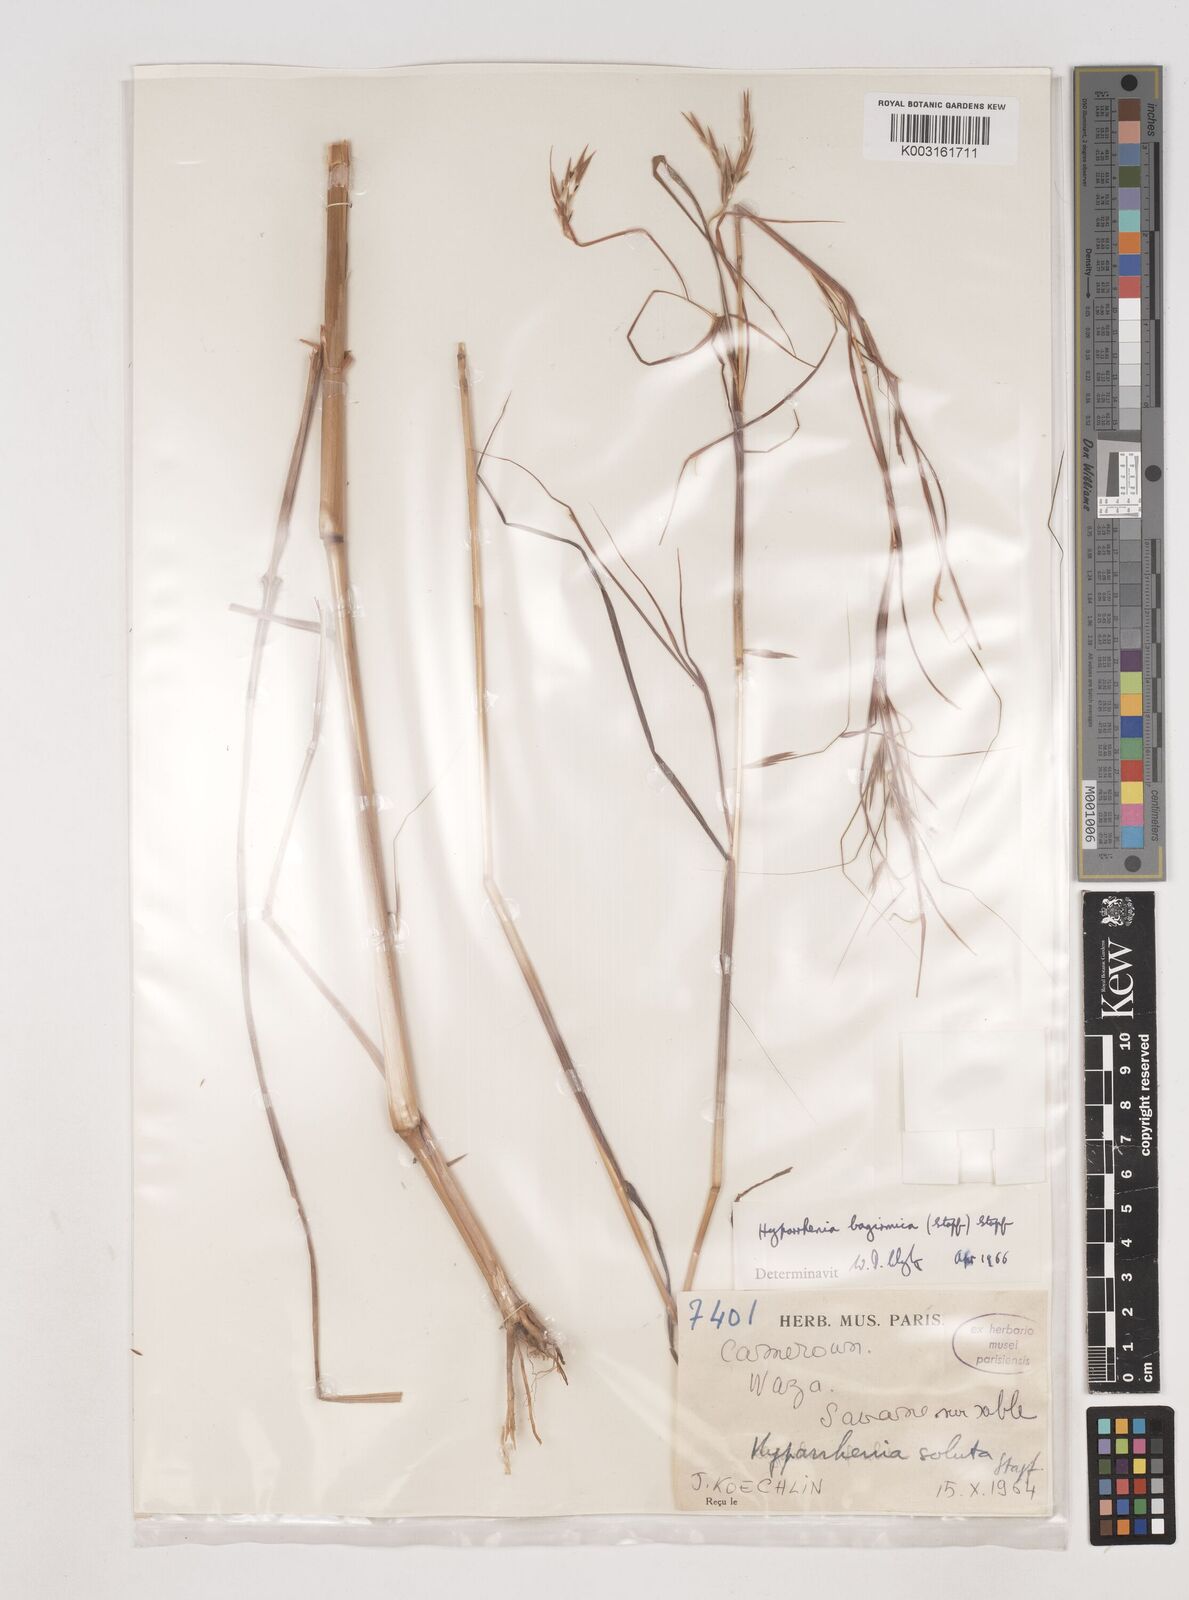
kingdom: Plantae
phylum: Tracheophyta
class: Liliopsida
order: Poales
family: Poaceae
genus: Hyparrhenia
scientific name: Hyparrhenia bagirmica
